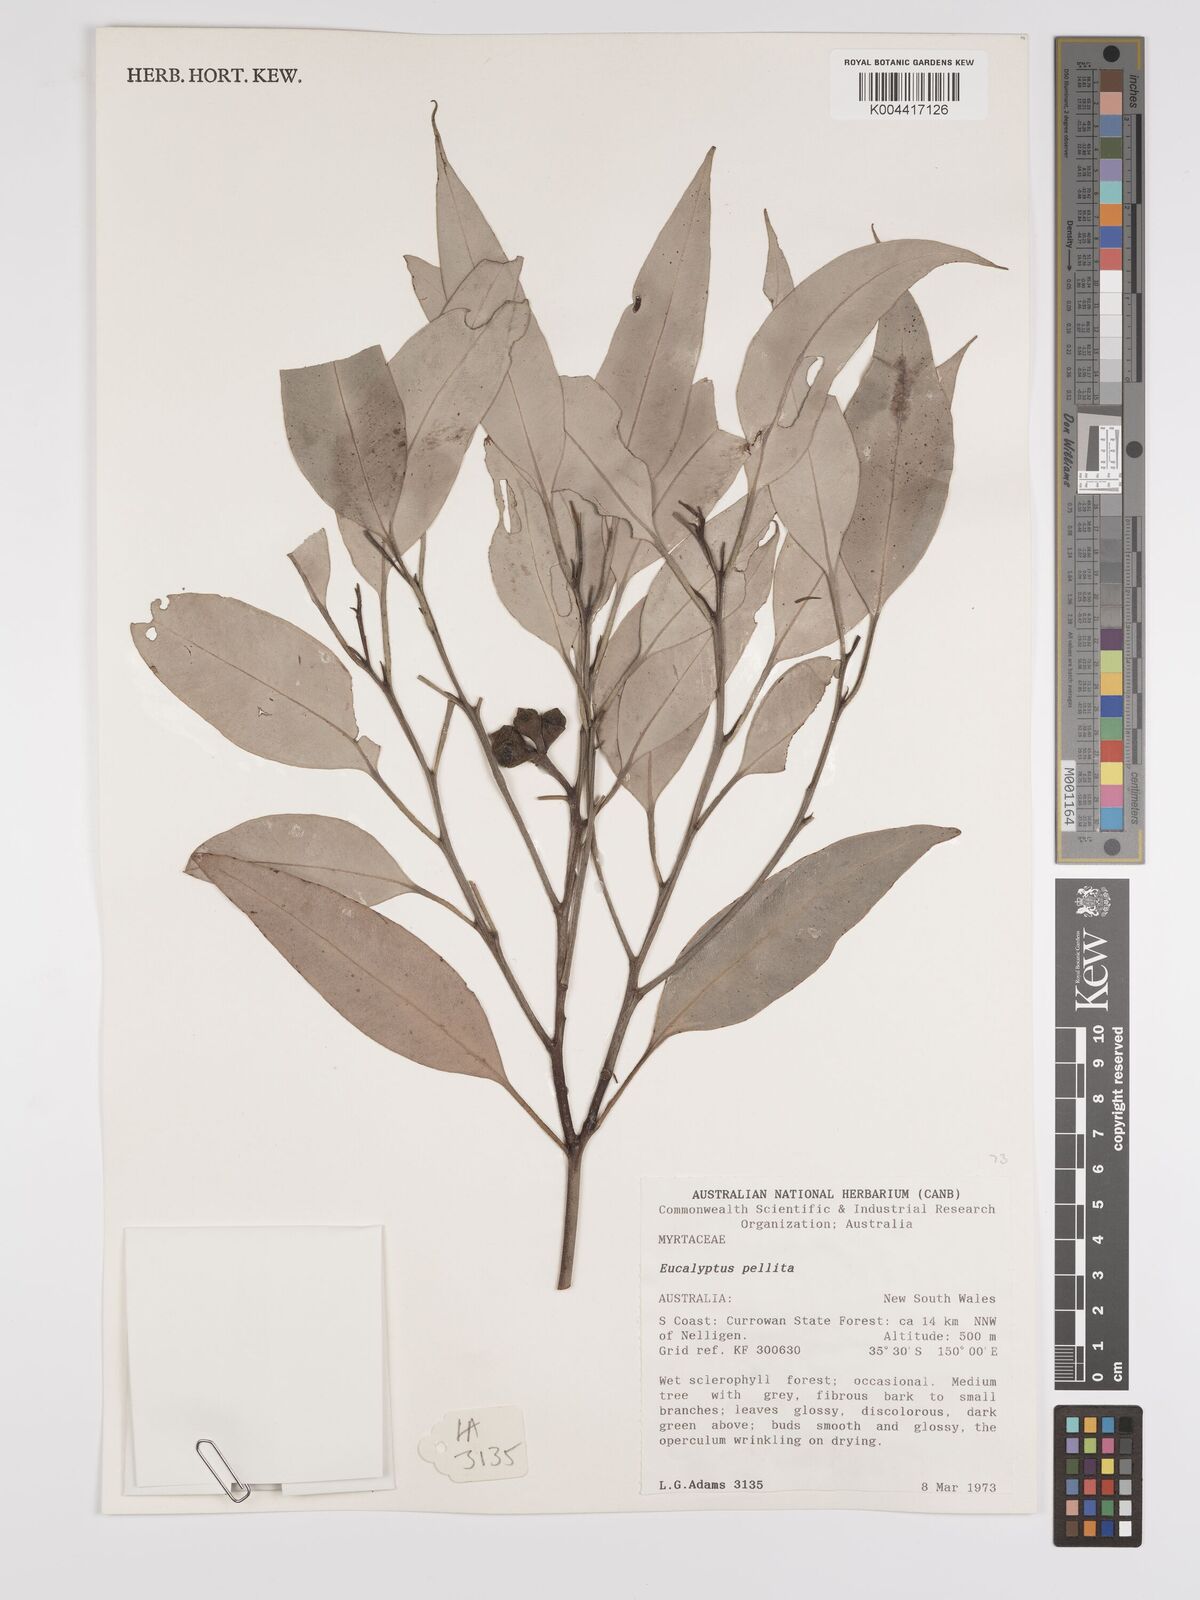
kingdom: Plantae
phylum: Tracheophyta
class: Magnoliopsida
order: Myrtales
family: Myrtaceae
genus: Eucalyptus
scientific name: Eucalyptus pellita
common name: Large-fruited-red-mahogany
